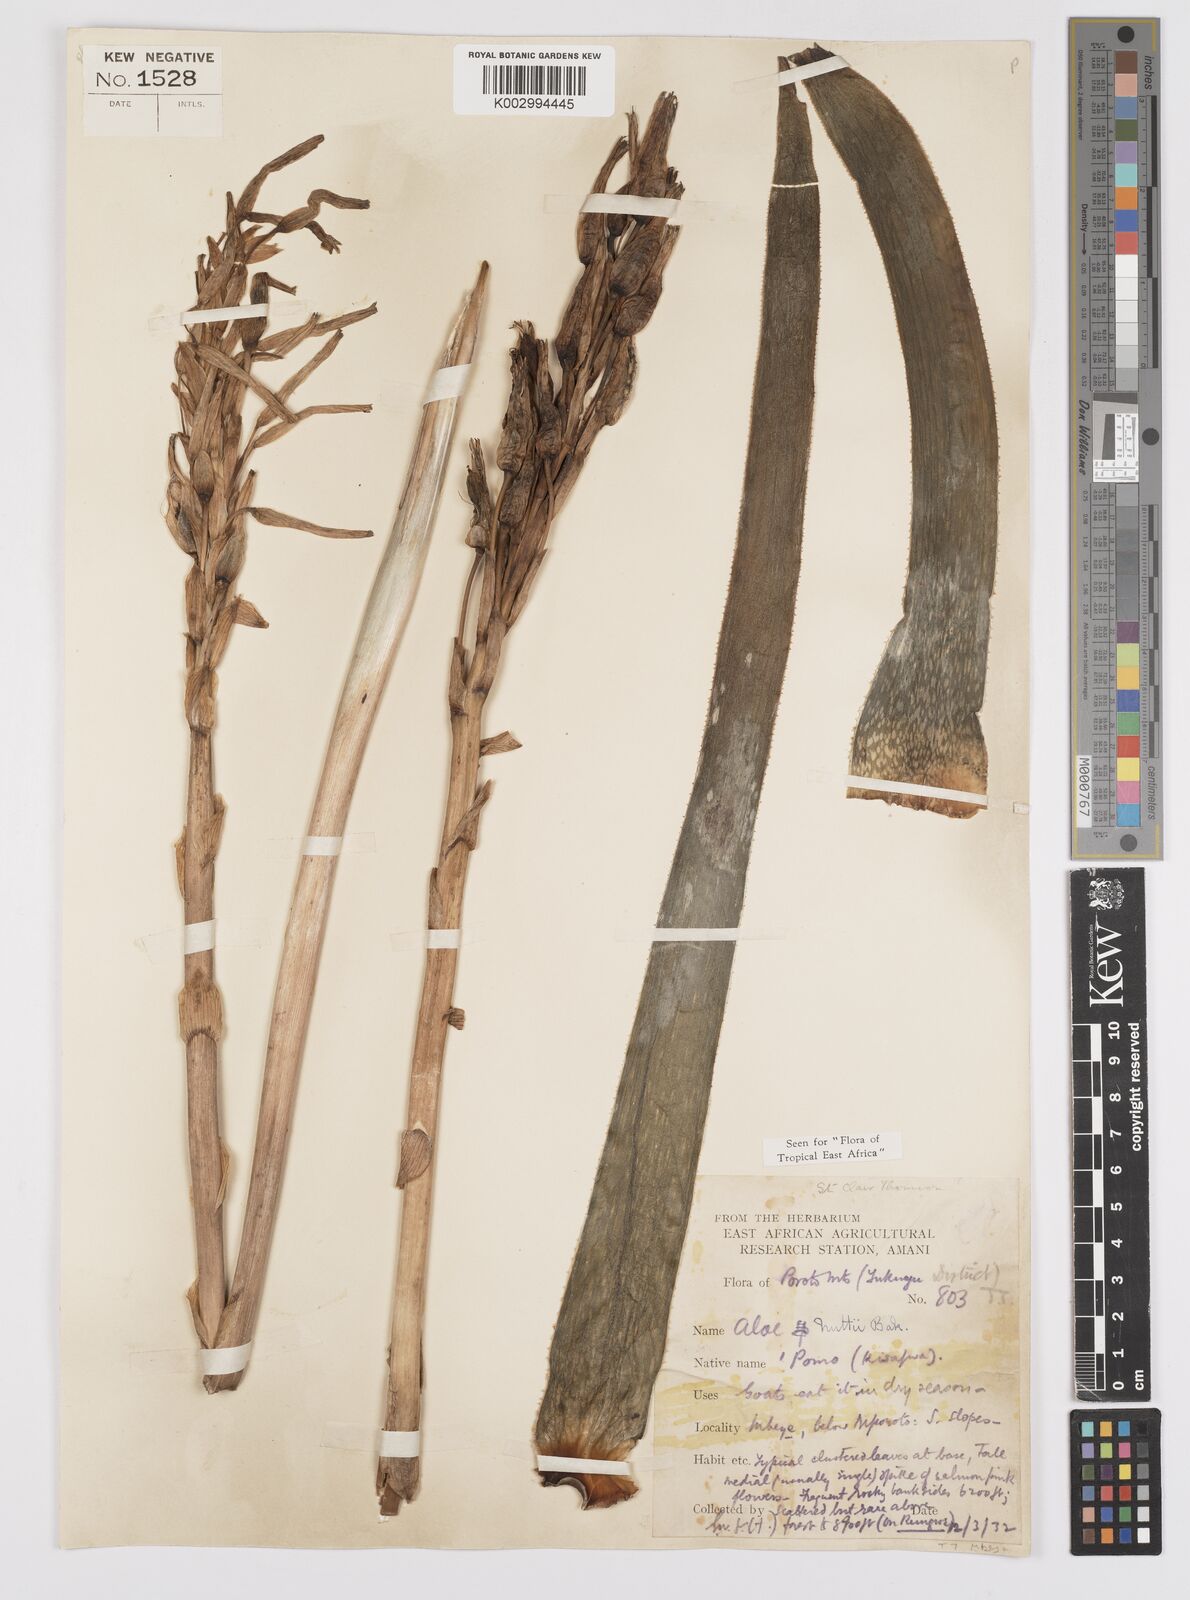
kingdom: Plantae
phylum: Tracheophyta
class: Liliopsida
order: Asparagales
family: Asphodelaceae
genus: Aloe
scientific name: Aloe nuttii
